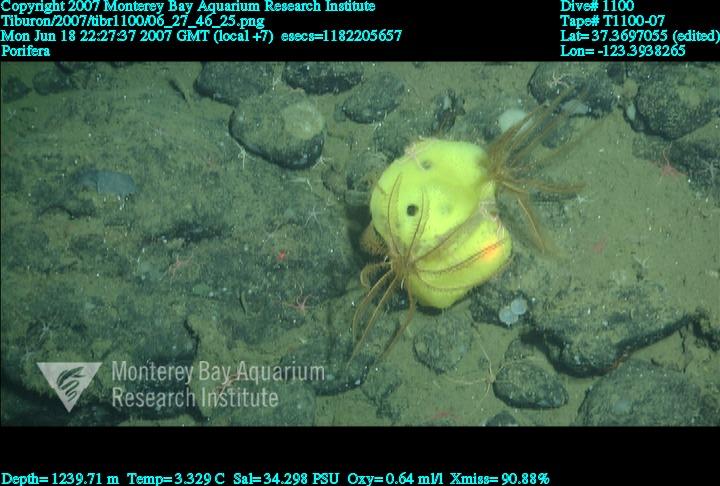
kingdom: Animalia
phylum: Porifera
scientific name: Porifera
